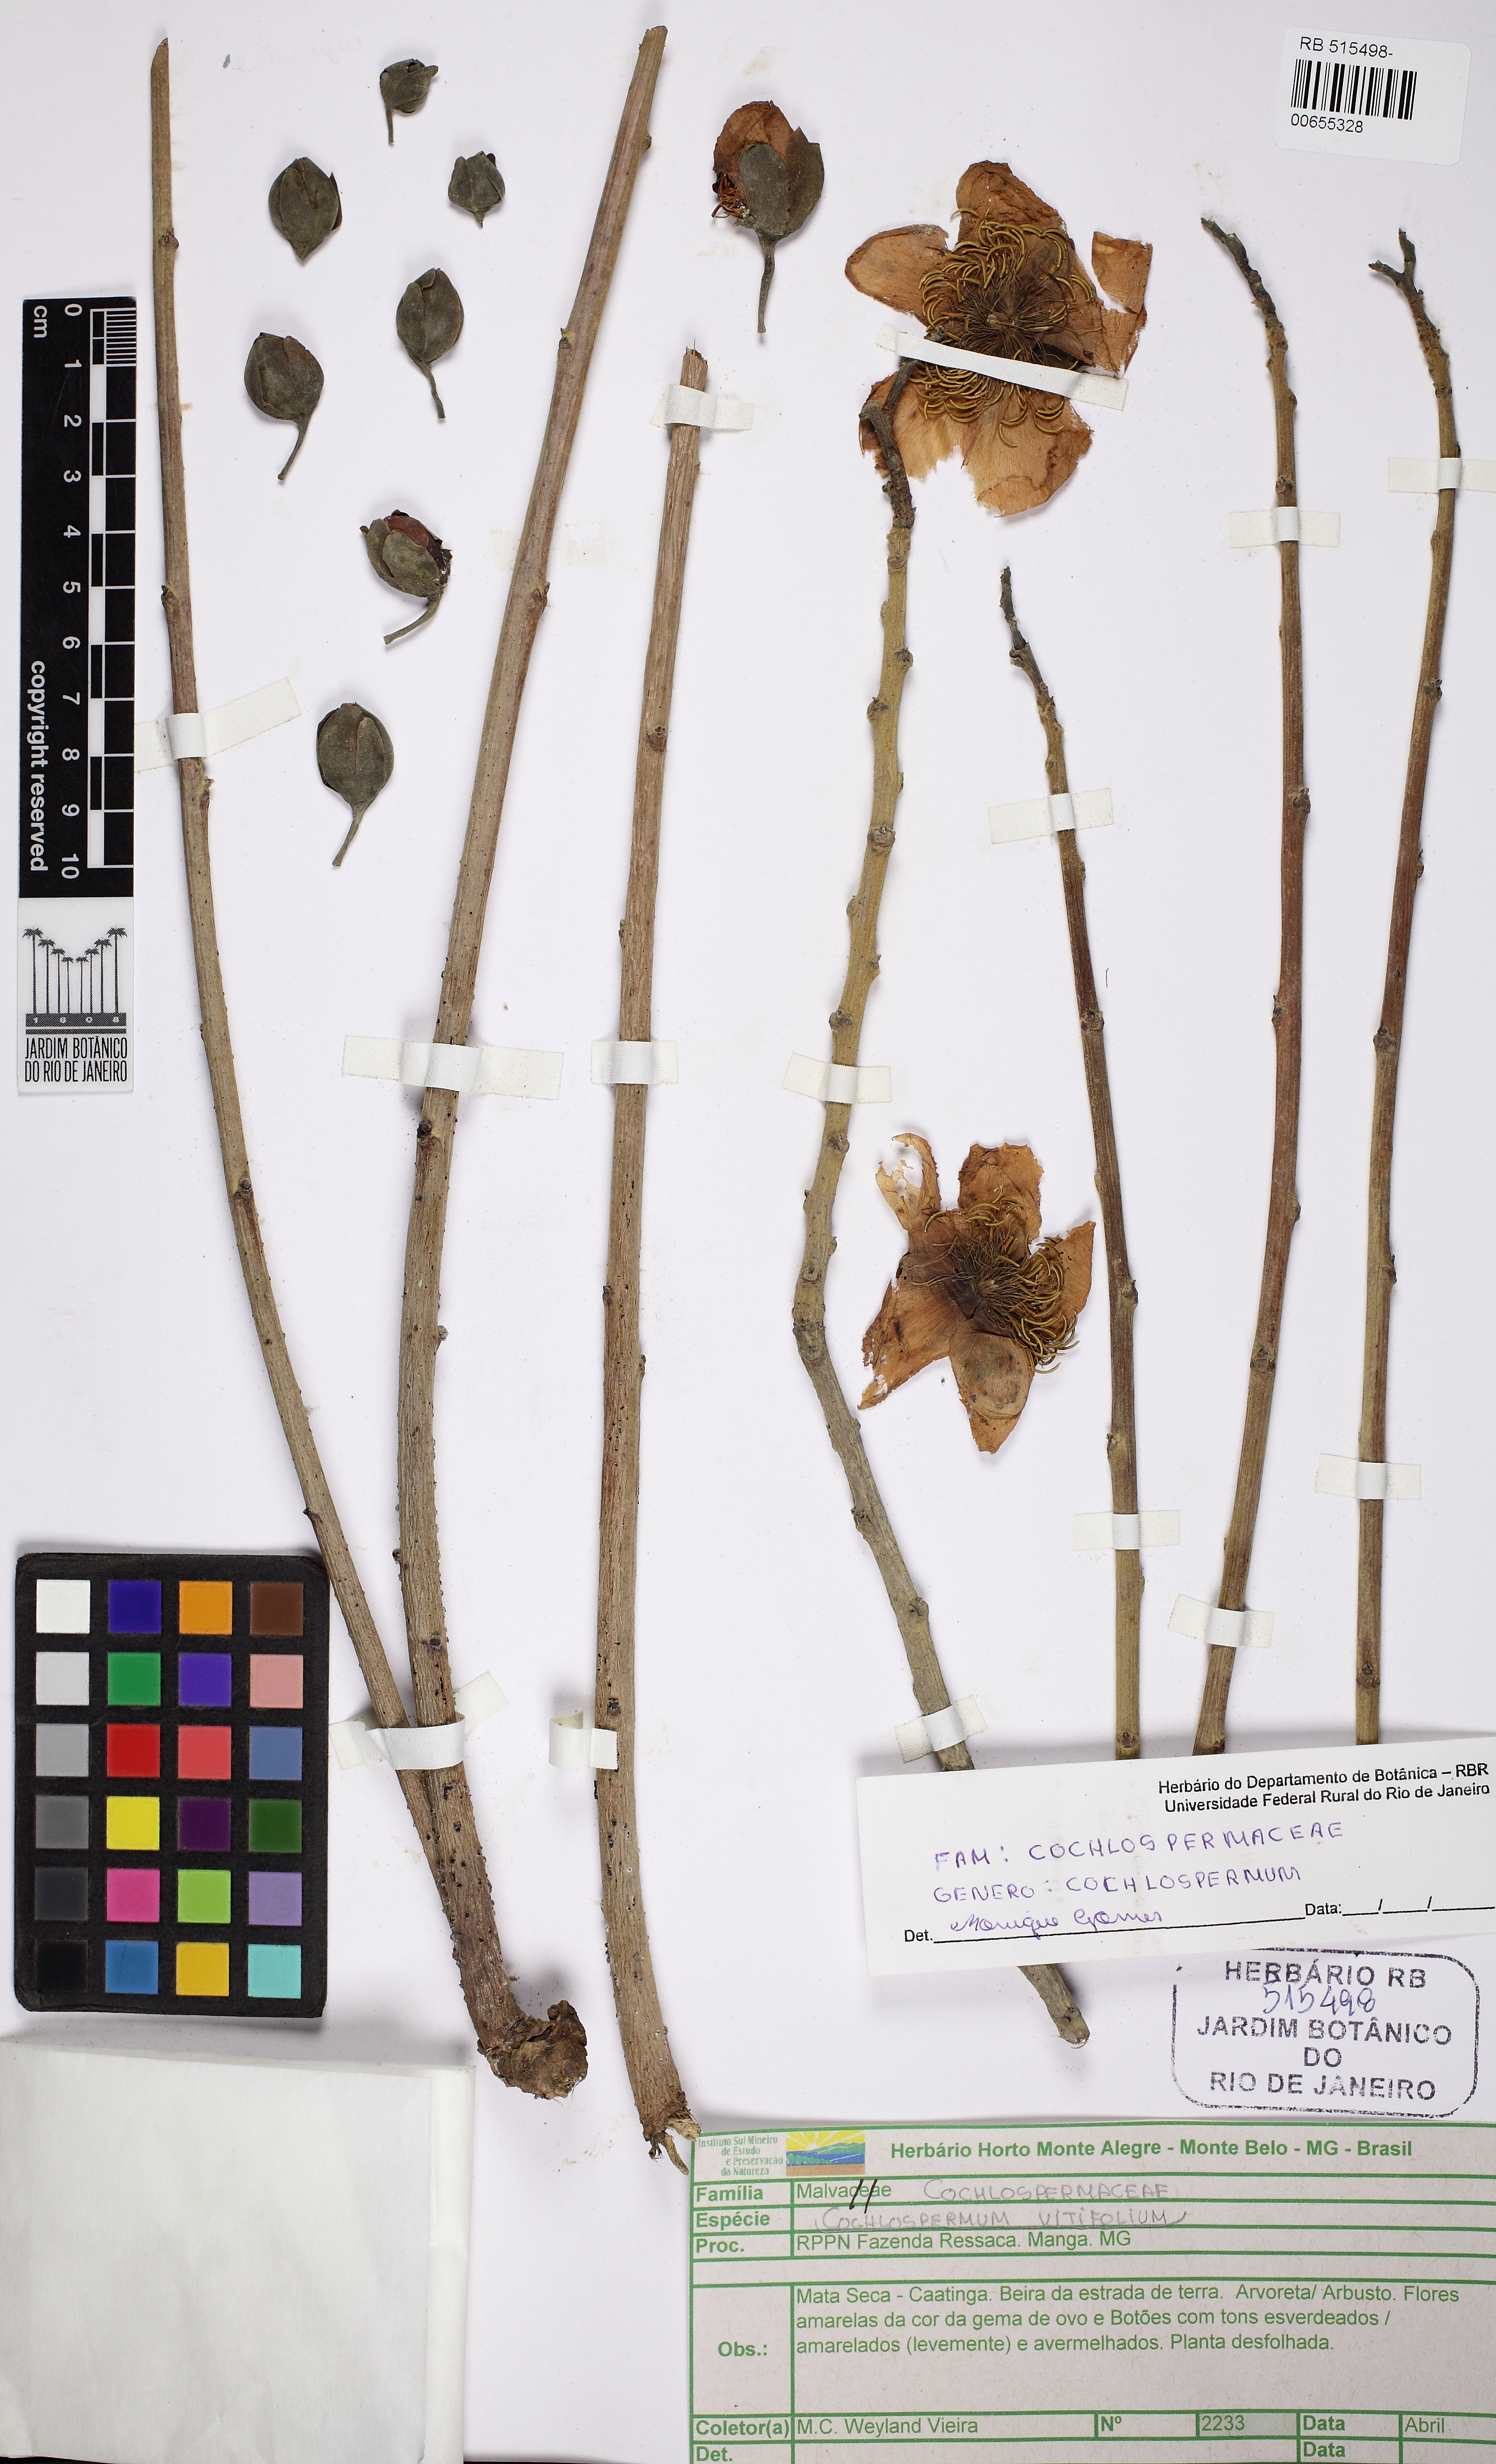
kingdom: Plantae
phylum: Tracheophyta
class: Magnoliopsida
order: Malvales
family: Cochlospermaceae
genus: Cochlospermum
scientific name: Cochlospermum vitifolium
